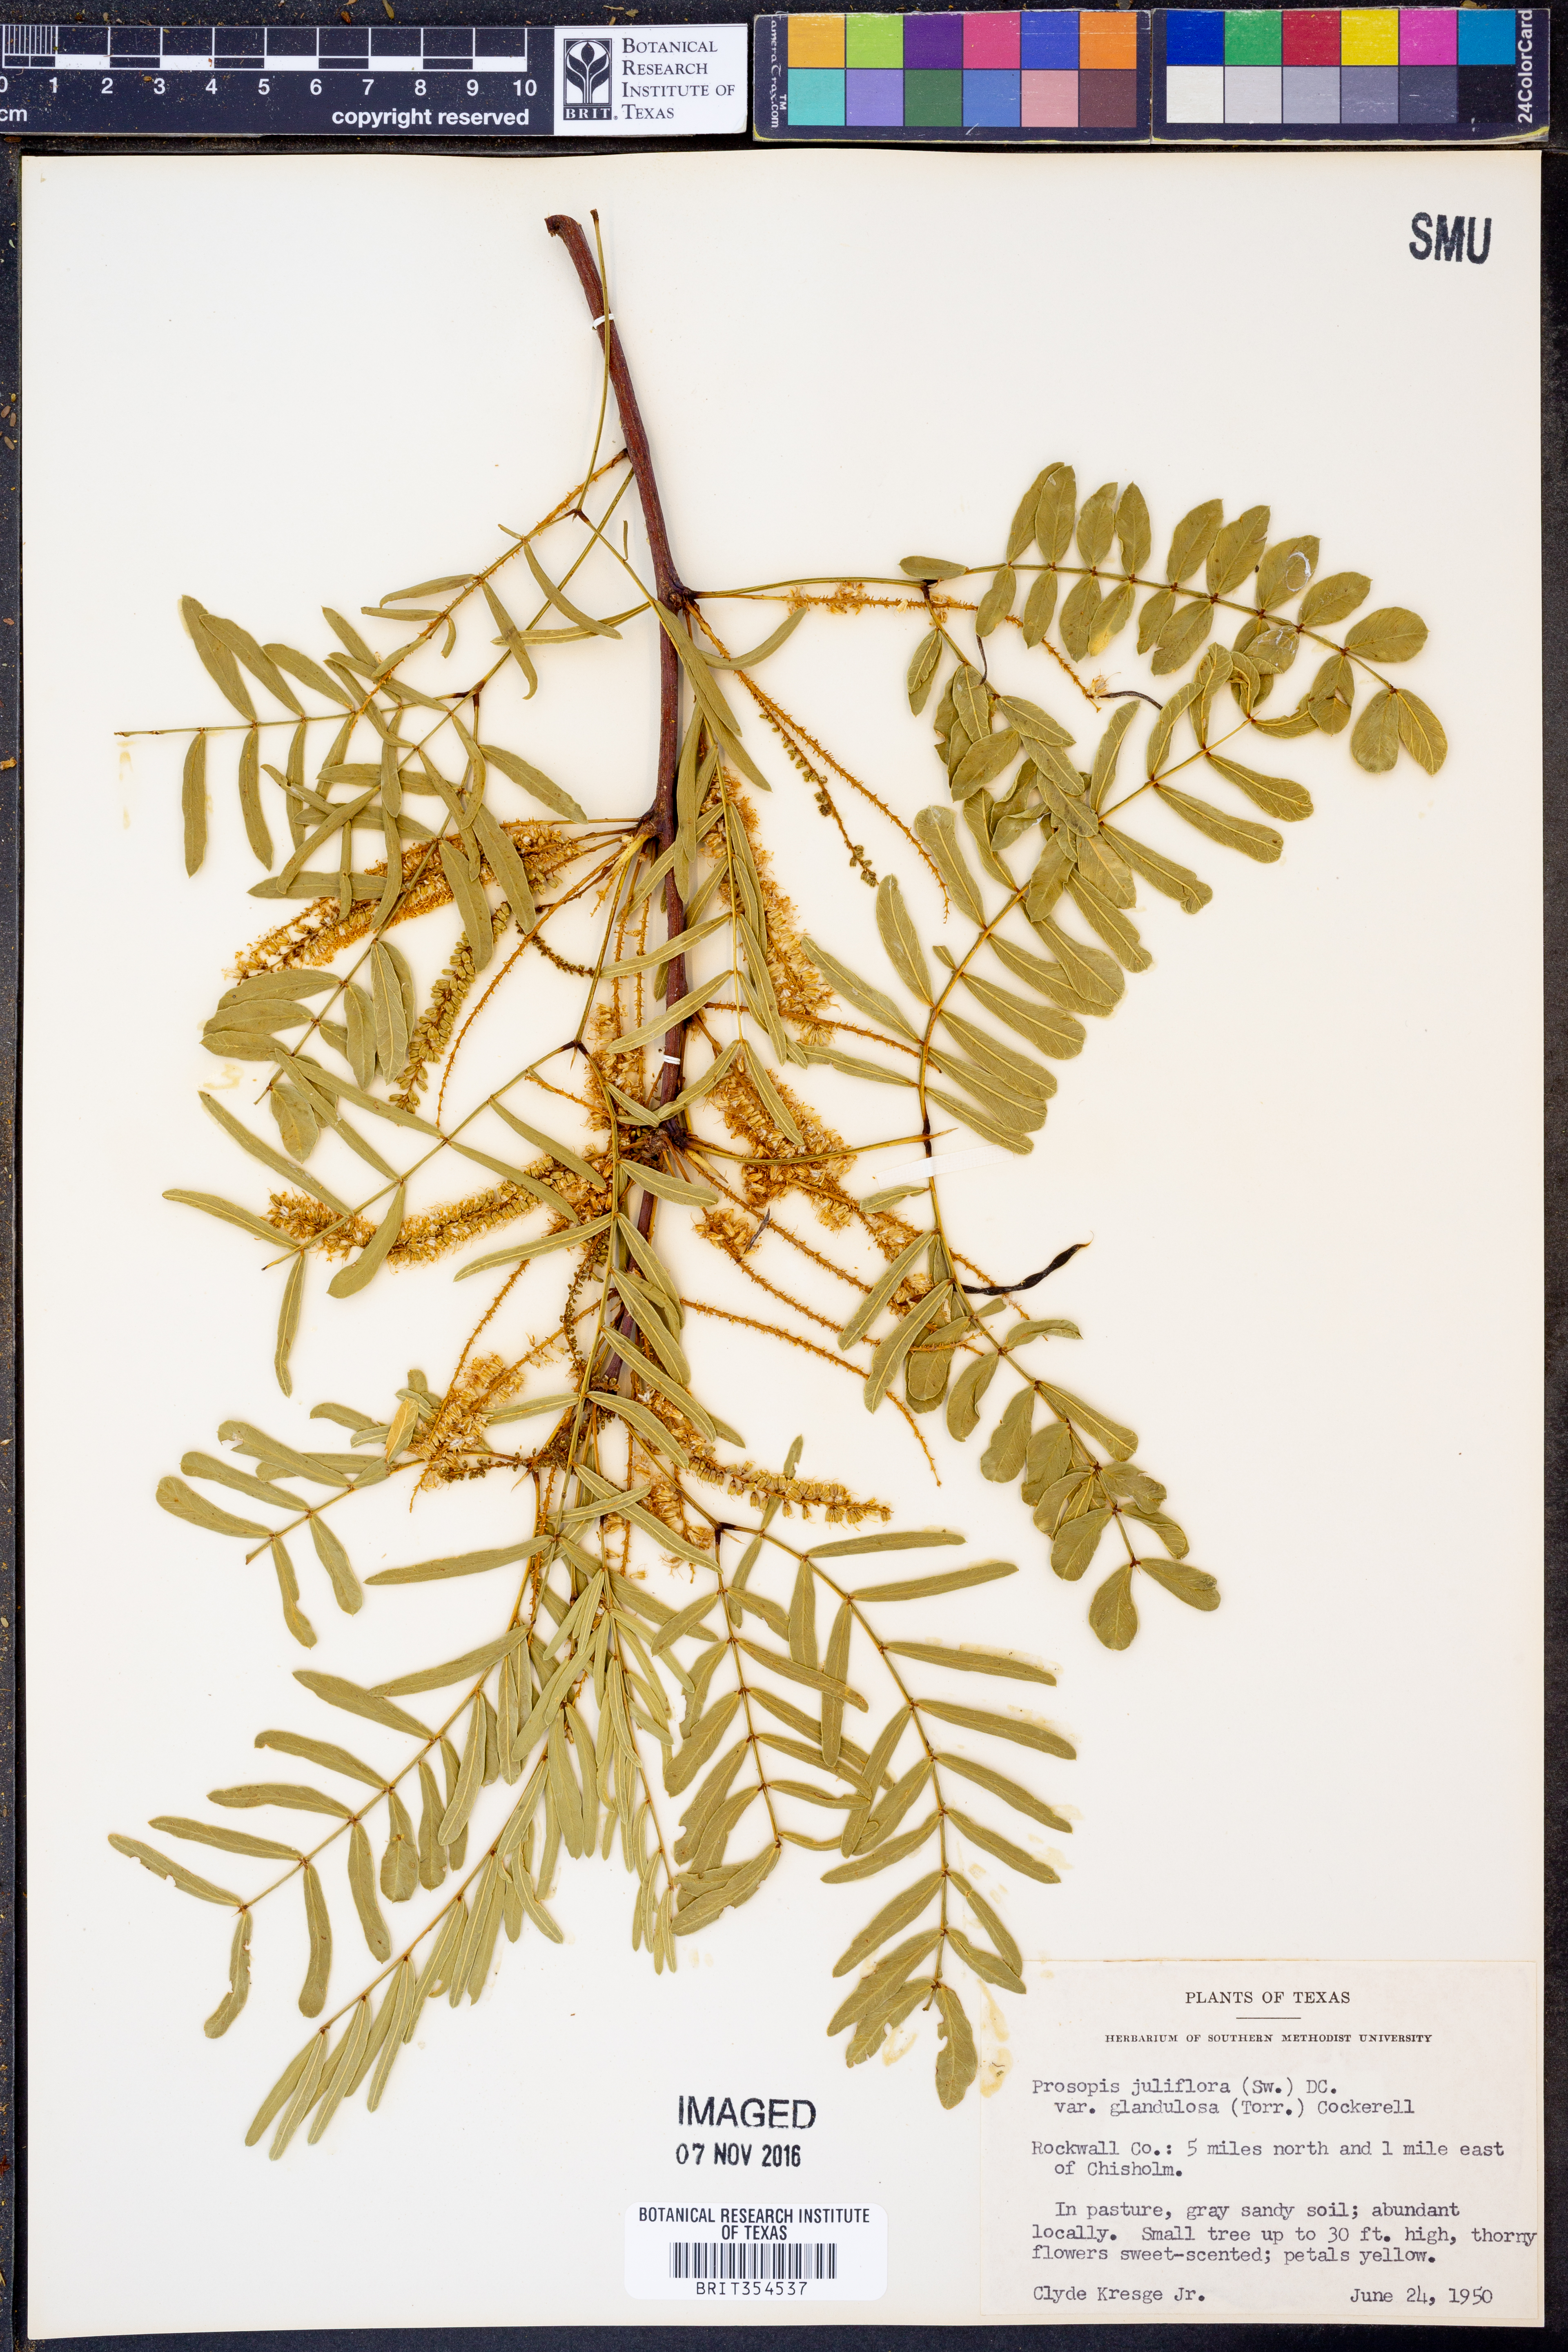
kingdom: Plantae
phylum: Tracheophyta
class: Magnoliopsida
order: Fabales
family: Fabaceae
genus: Prosopis
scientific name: Prosopis glandulosa
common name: Honey mesquite
